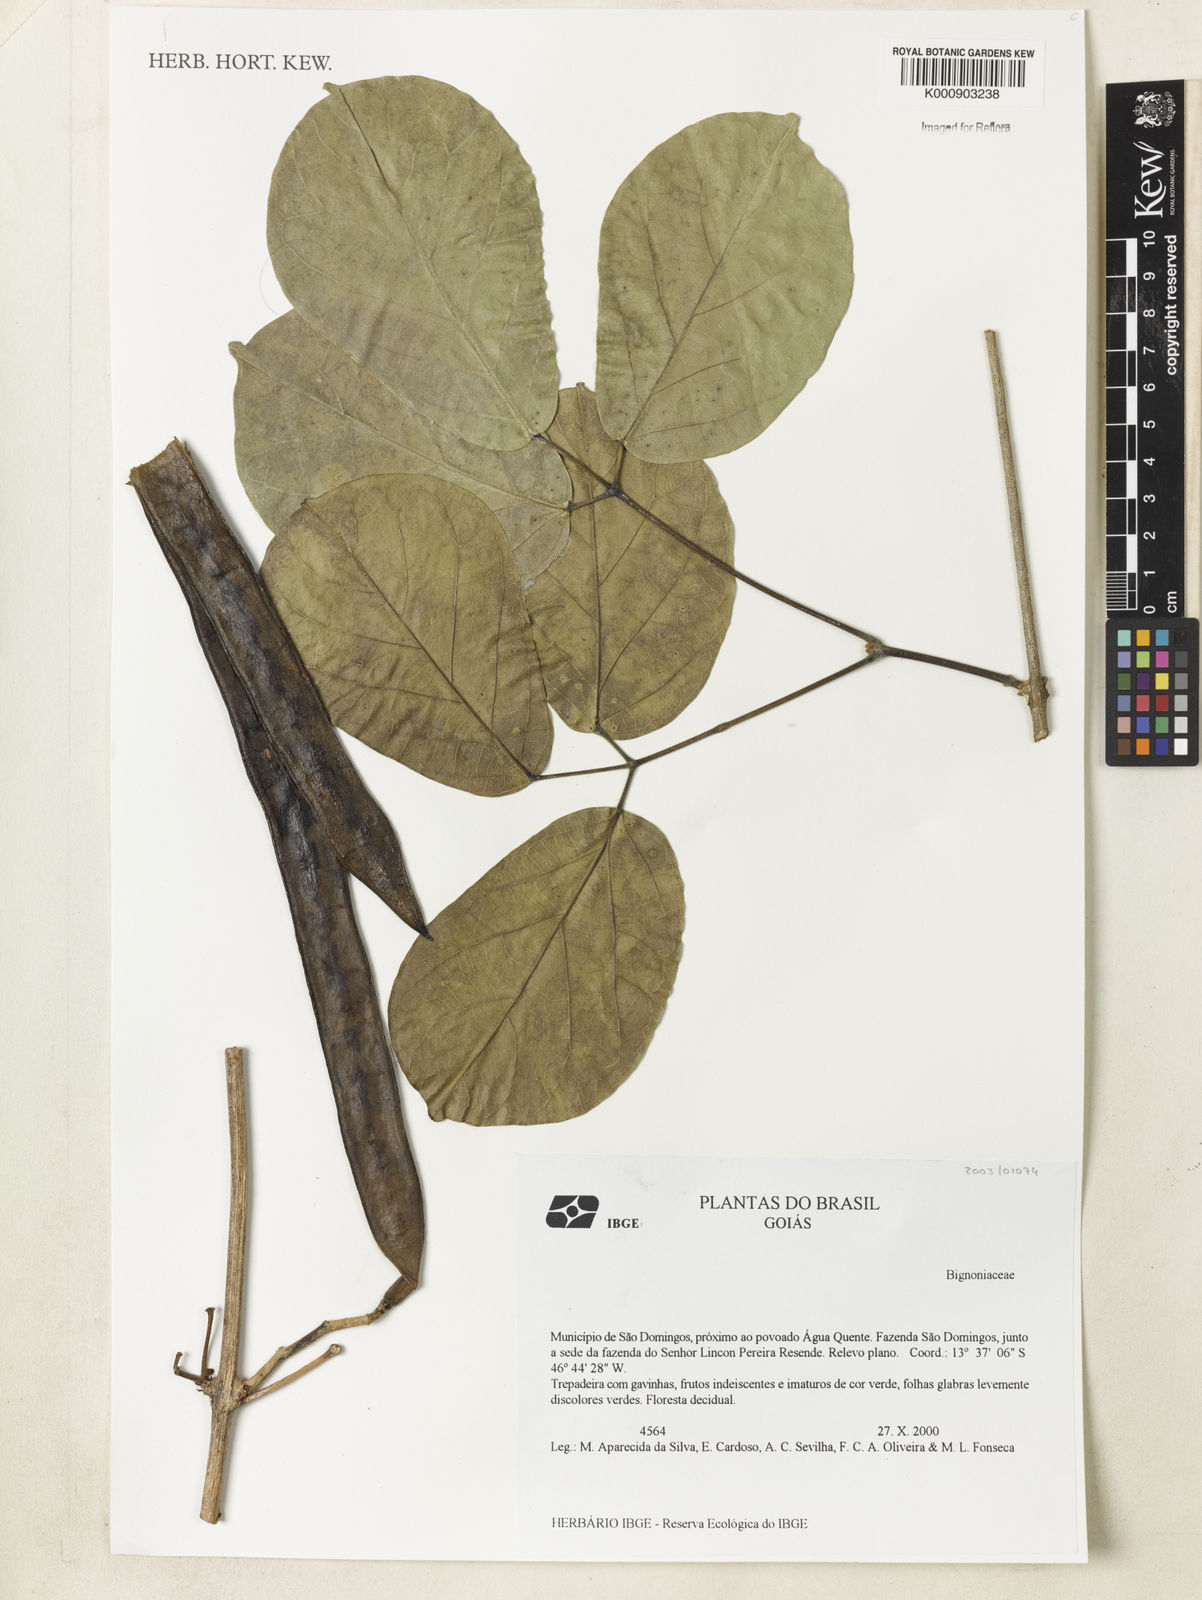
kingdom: Plantae
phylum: Tracheophyta
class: Magnoliopsida
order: Lamiales
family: Bignoniaceae
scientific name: Bignoniaceae
